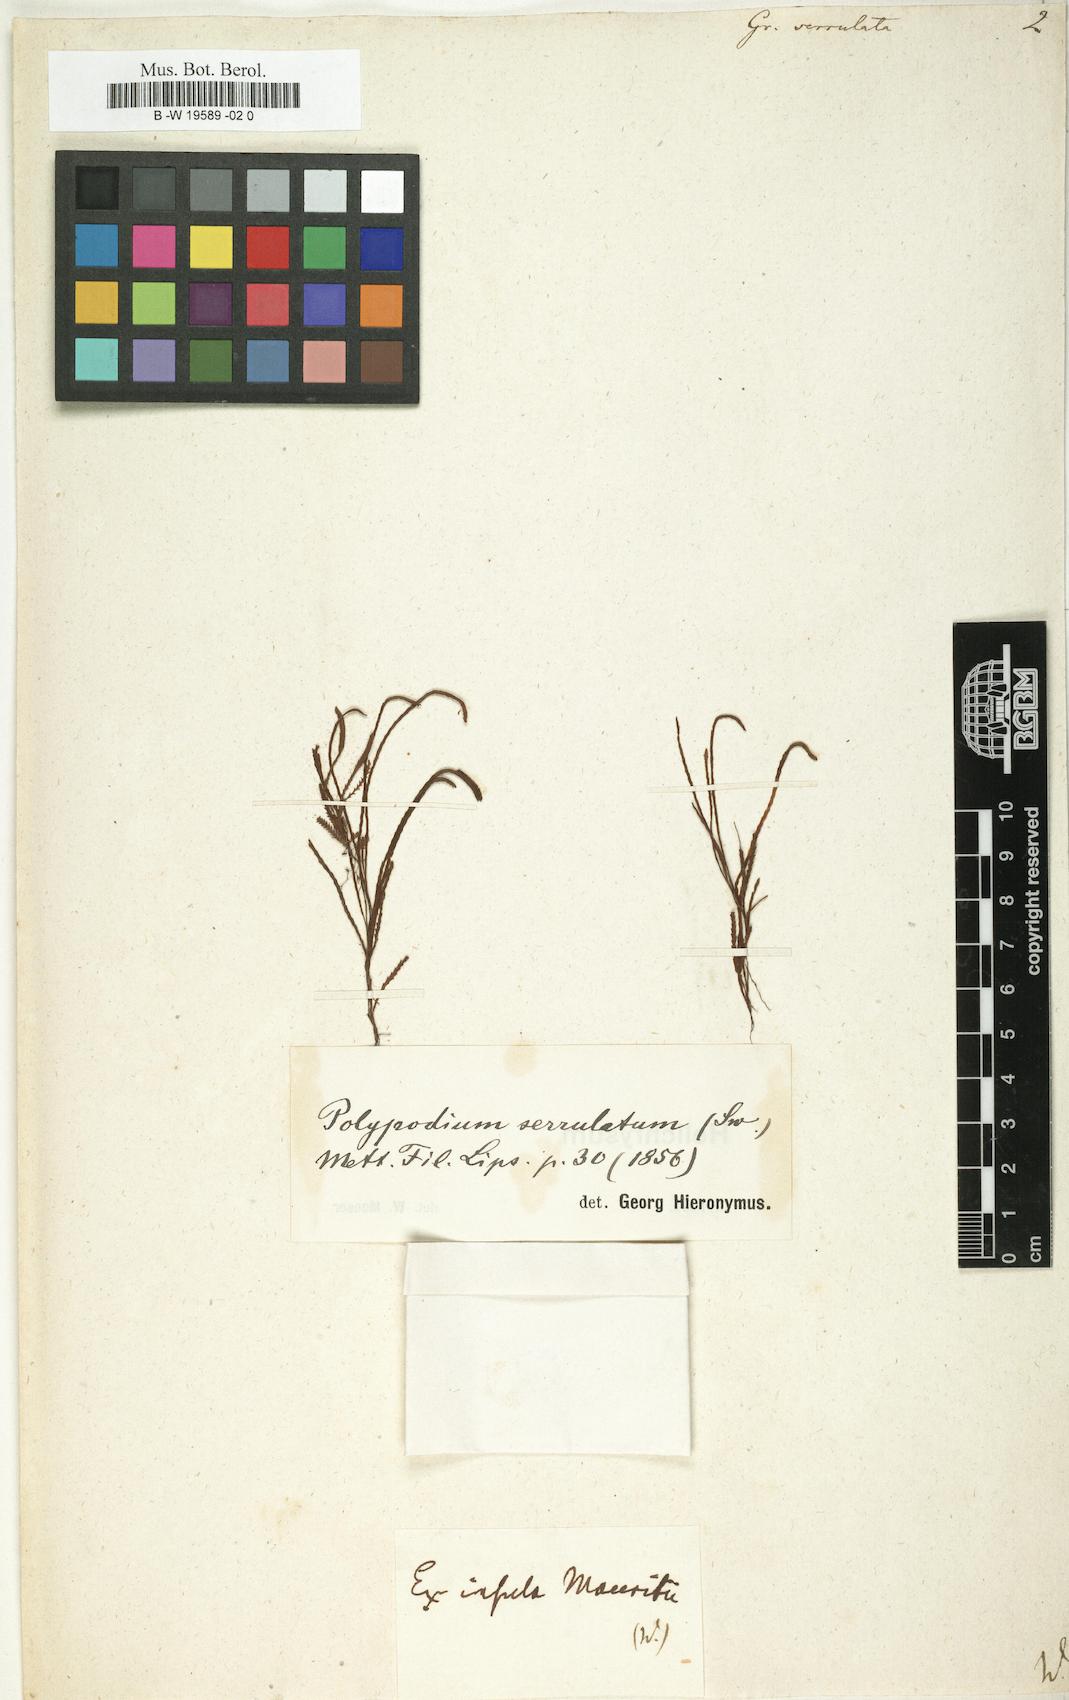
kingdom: Plantae
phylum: Tracheophyta
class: Polypodiopsida
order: Polypodiales
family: Polypodiaceae
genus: Cochlidium
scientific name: Cochlidium serrulatum
